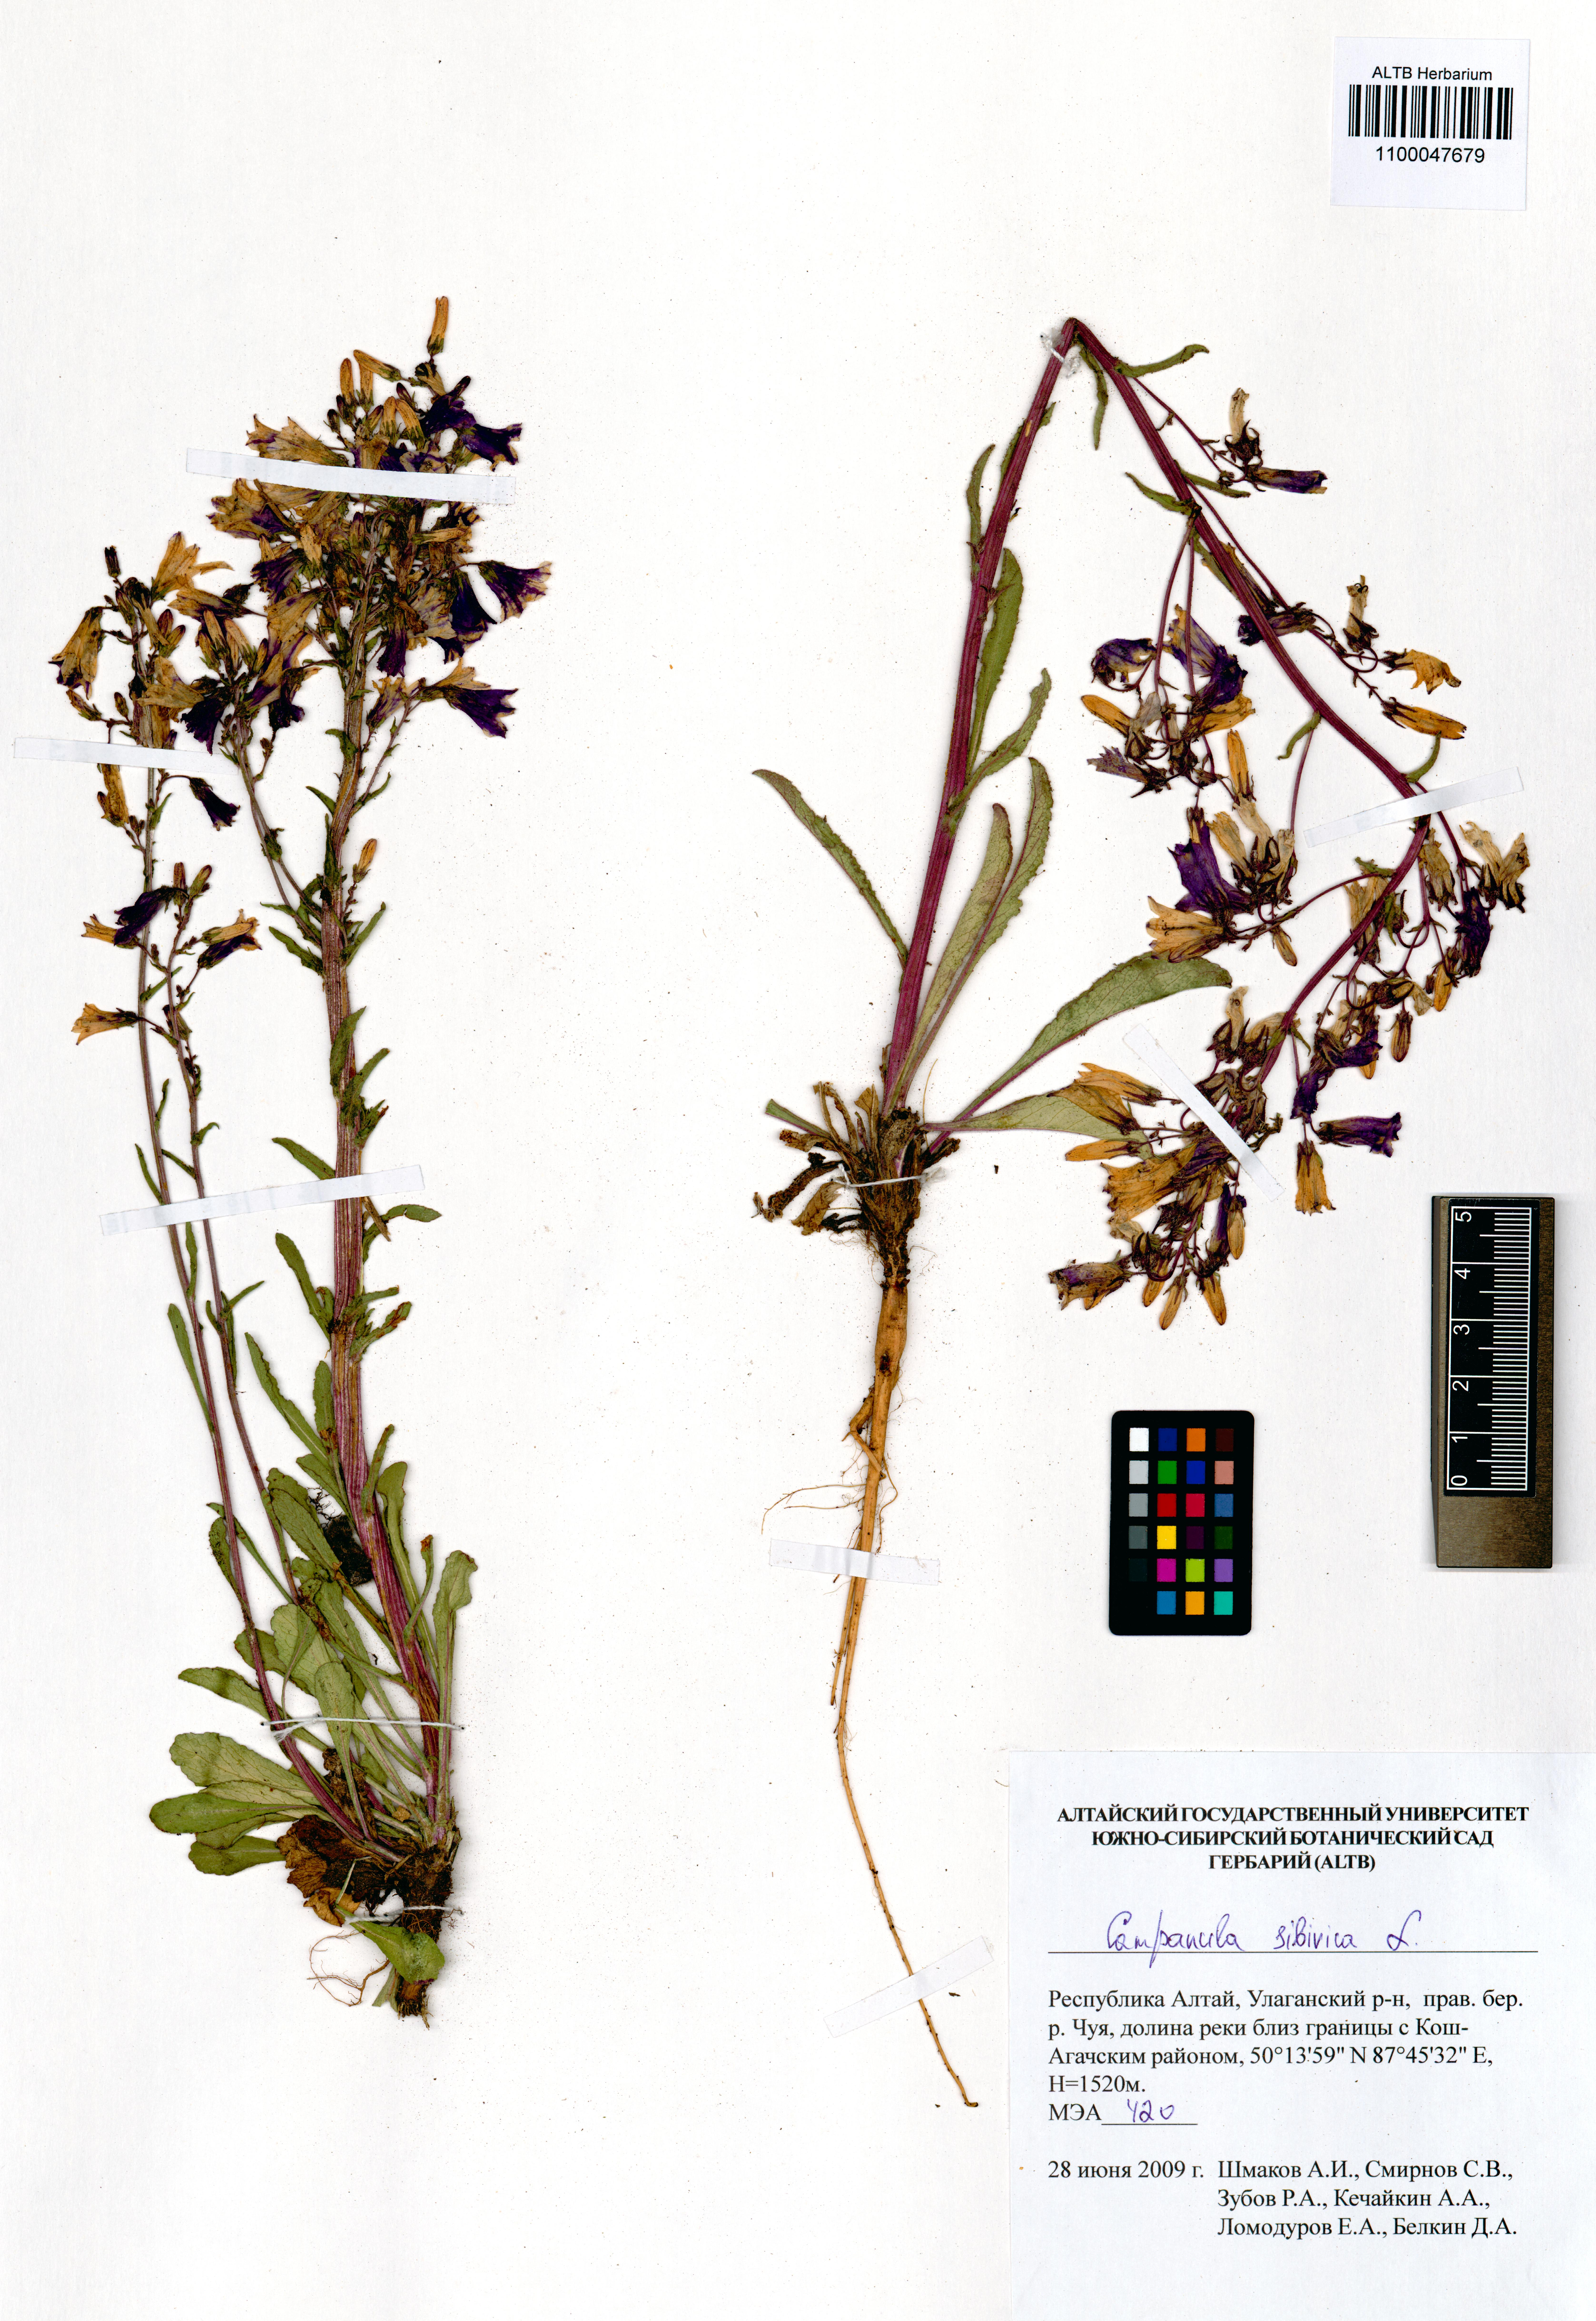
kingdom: Plantae
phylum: Tracheophyta
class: Magnoliopsida
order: Asterales
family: Campanulaceae
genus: Campanula
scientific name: Campanula sibirica
